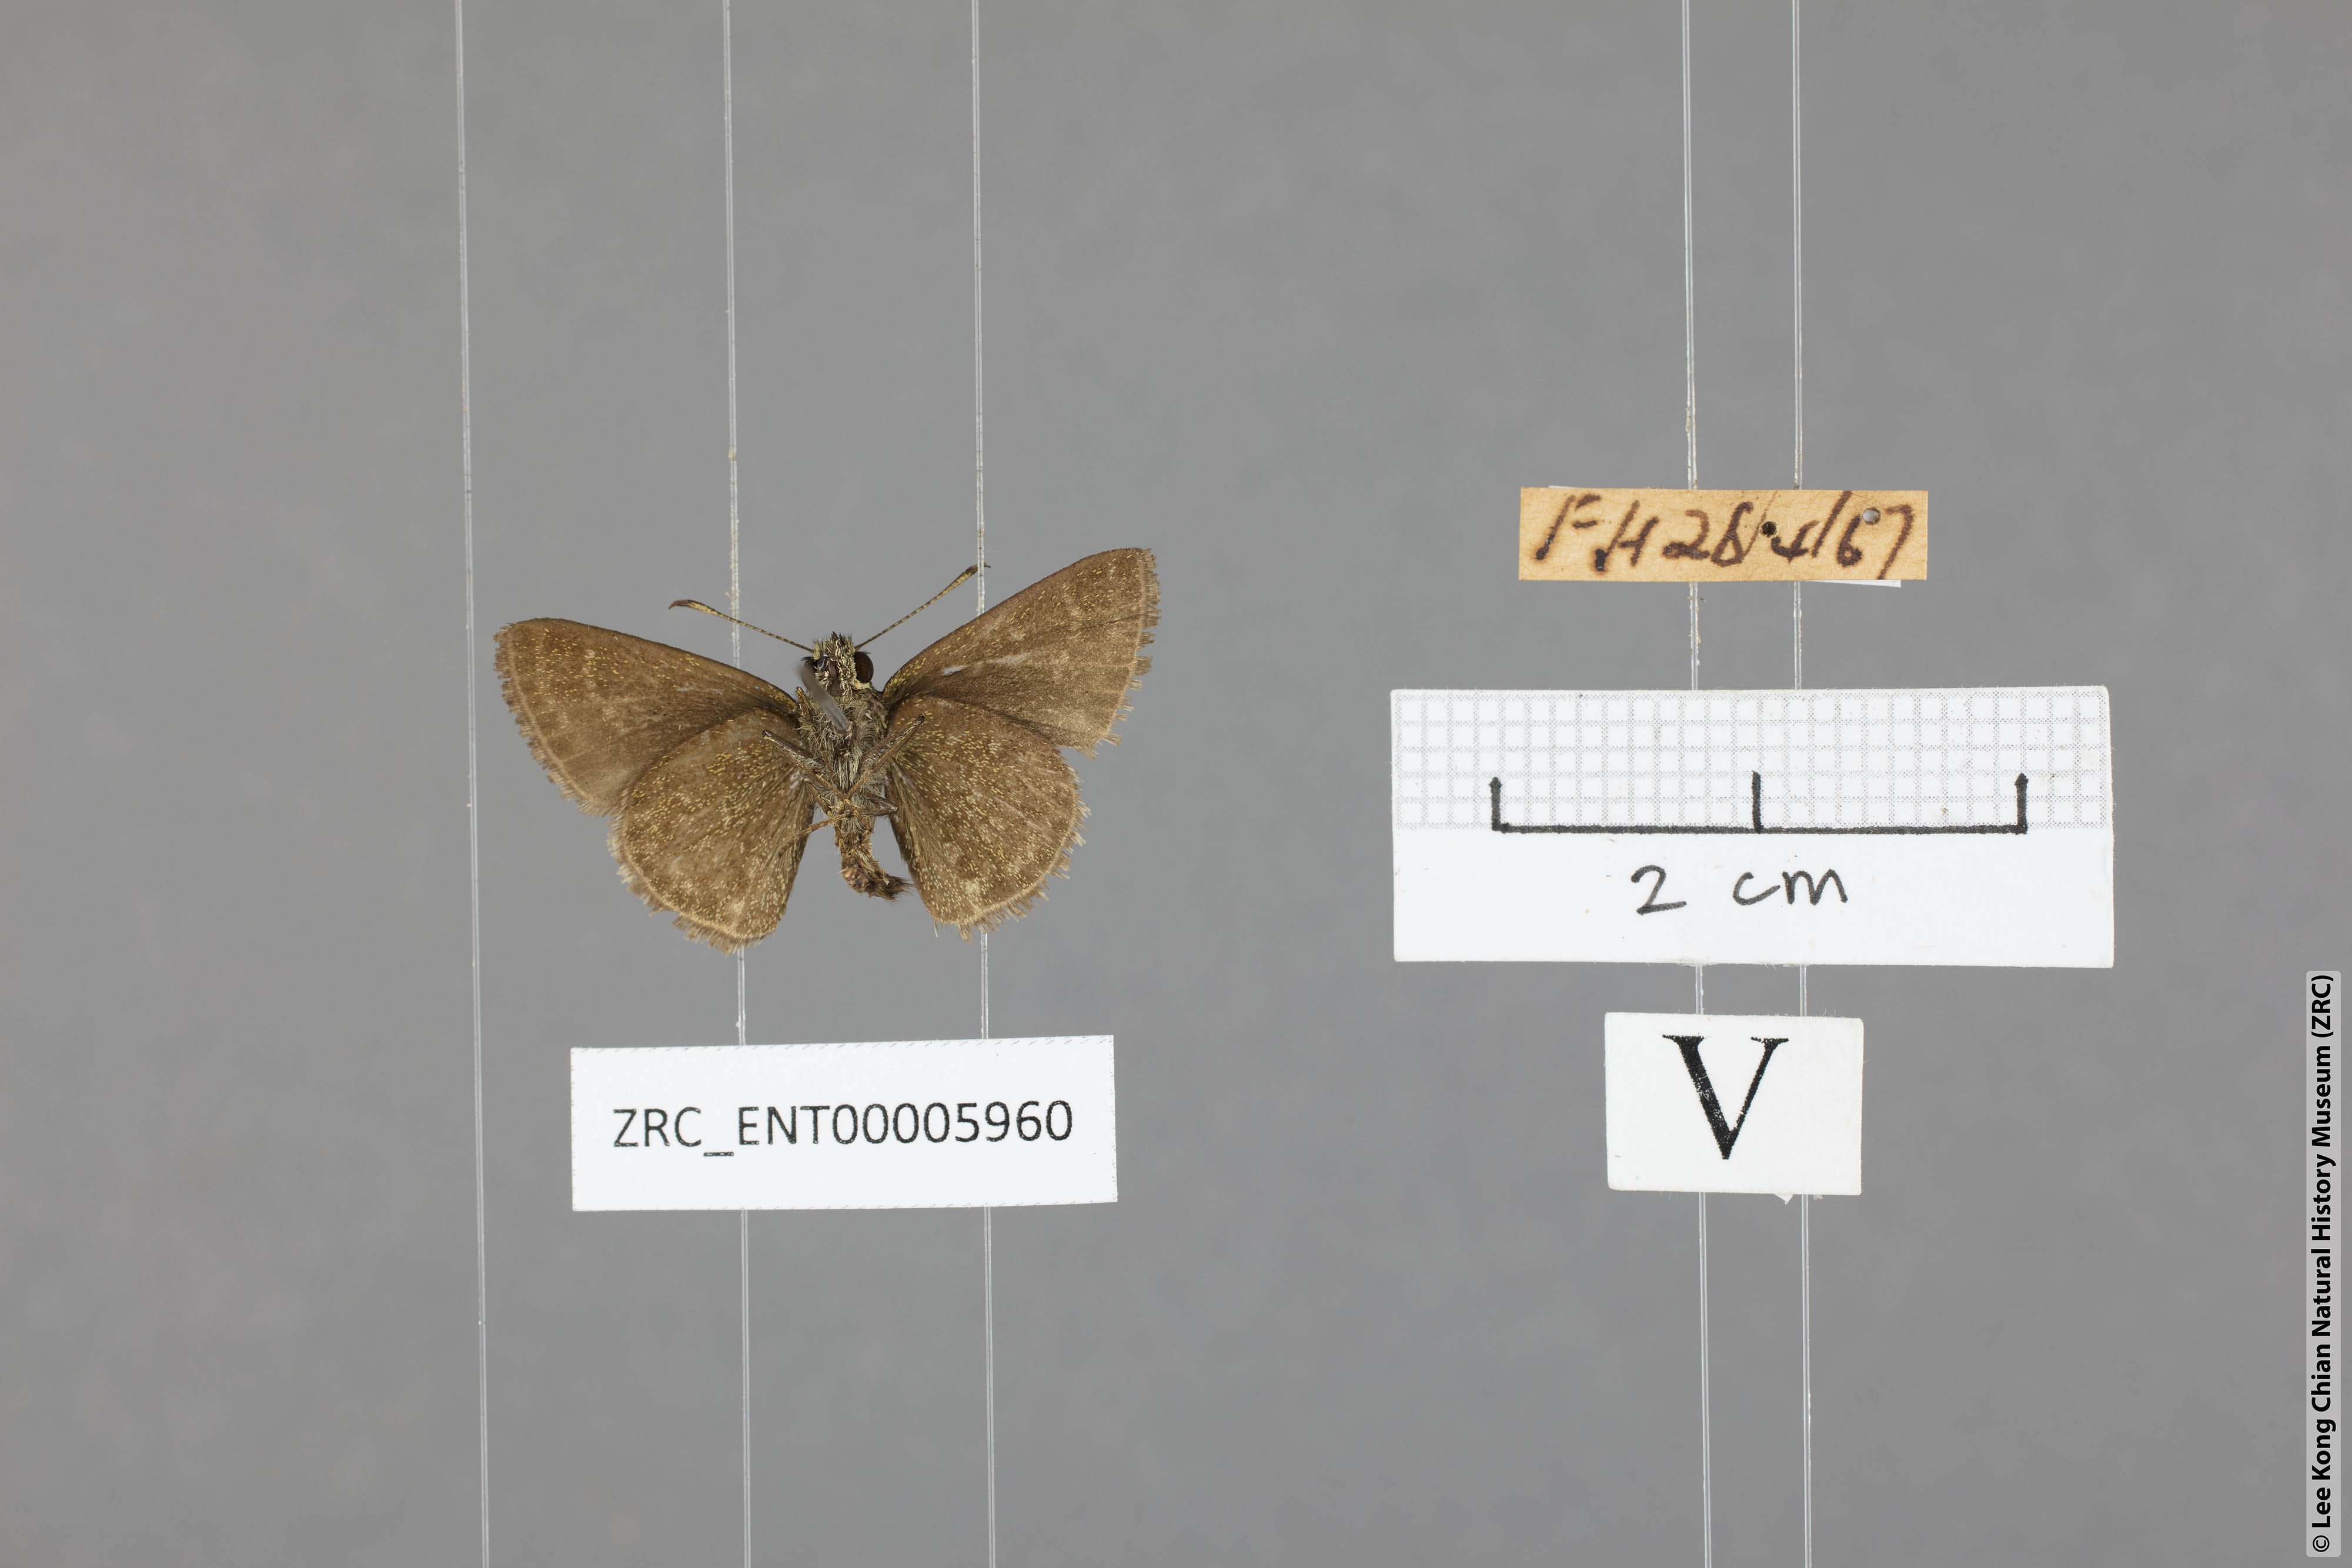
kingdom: Animalia
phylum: Arthropoda
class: Insecta
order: Lepidoptera
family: Hesperiidae
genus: Aeromachus
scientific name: Aeromachus jhora
